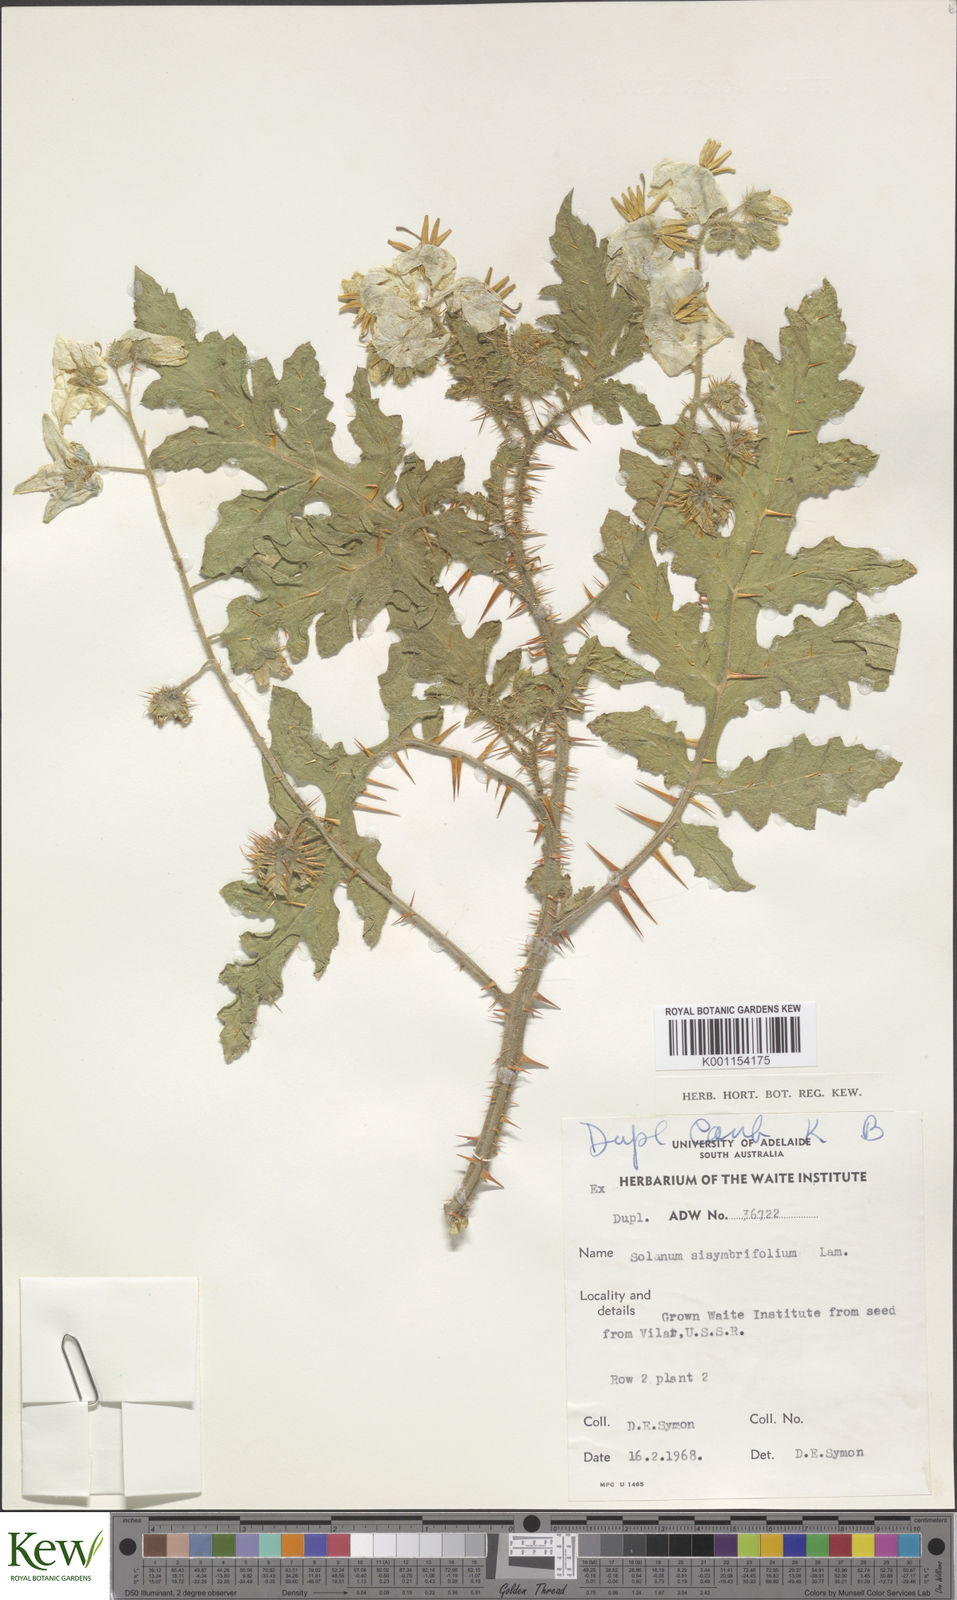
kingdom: Plantae
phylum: Tracheophyta
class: Magnoliopsida
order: Solanales
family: Solanaceae
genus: Solanum
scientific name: Solanum sisymbriifolium
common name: Red buffalo-bur
